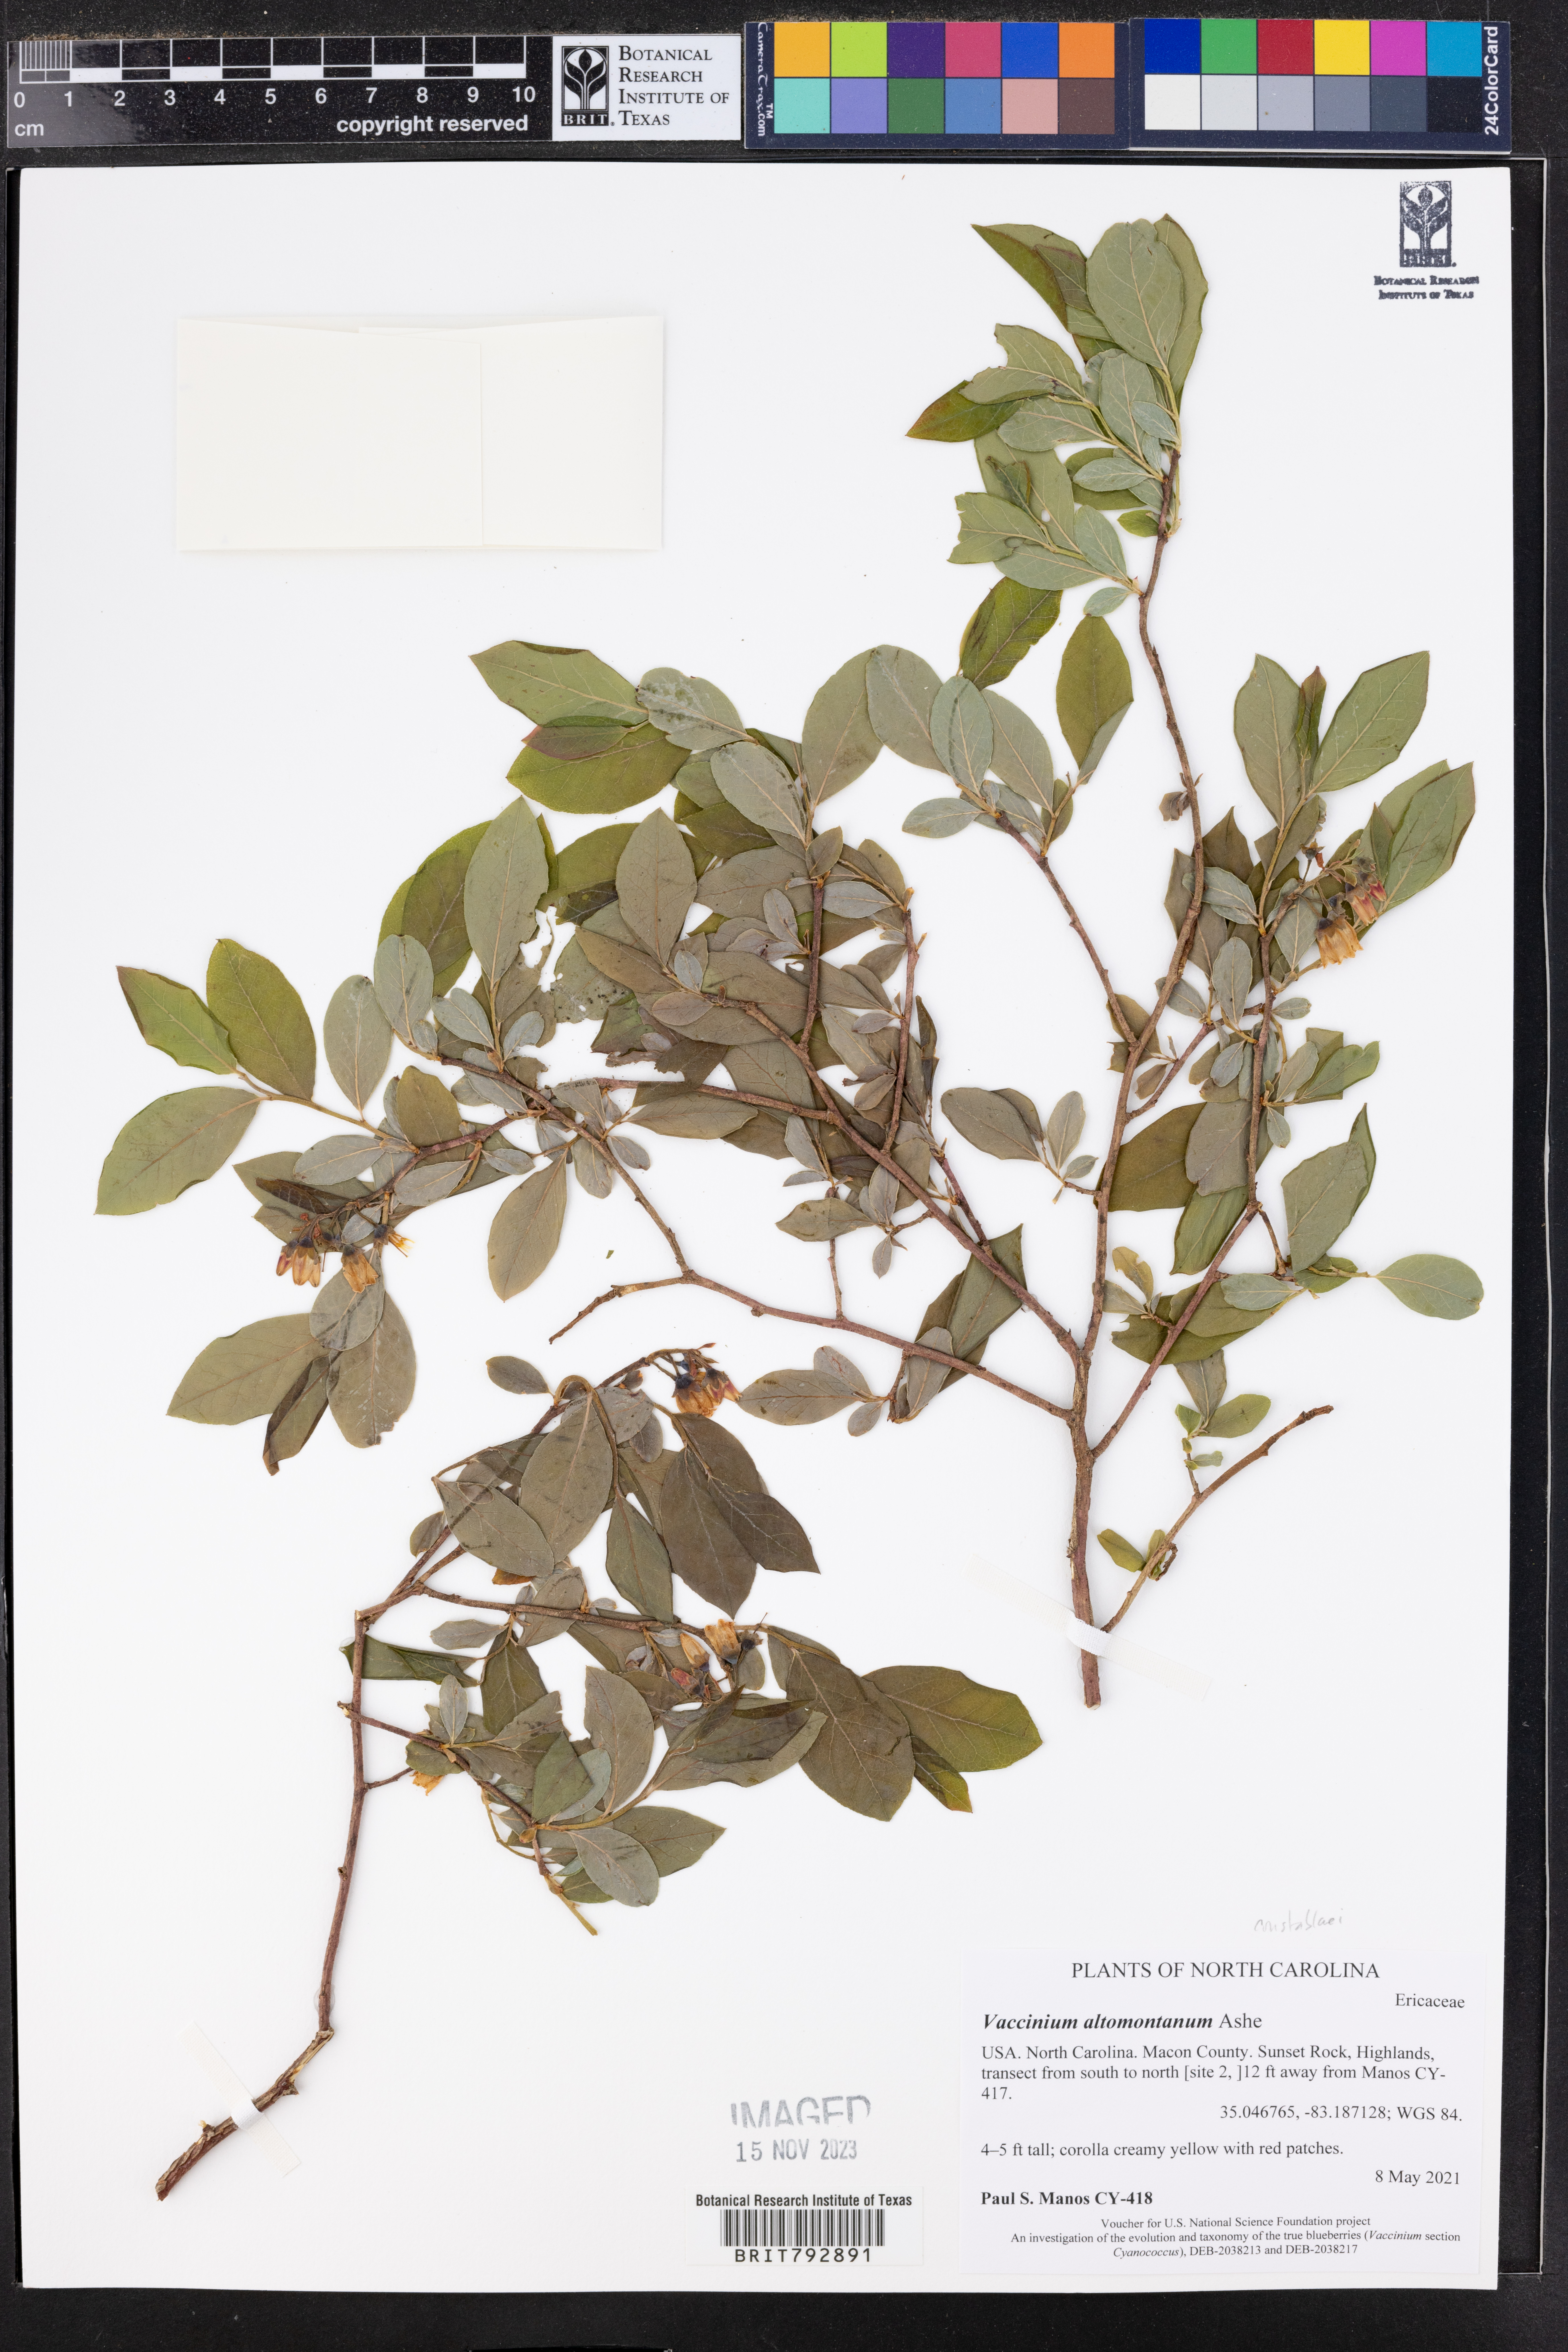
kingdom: Plantae
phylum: Tracheophyta
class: Magnoliopsida
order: Ericales
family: Ericaceae
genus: Vaccinium
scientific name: Vaccinium pallidum
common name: Blue ridge blueberry
